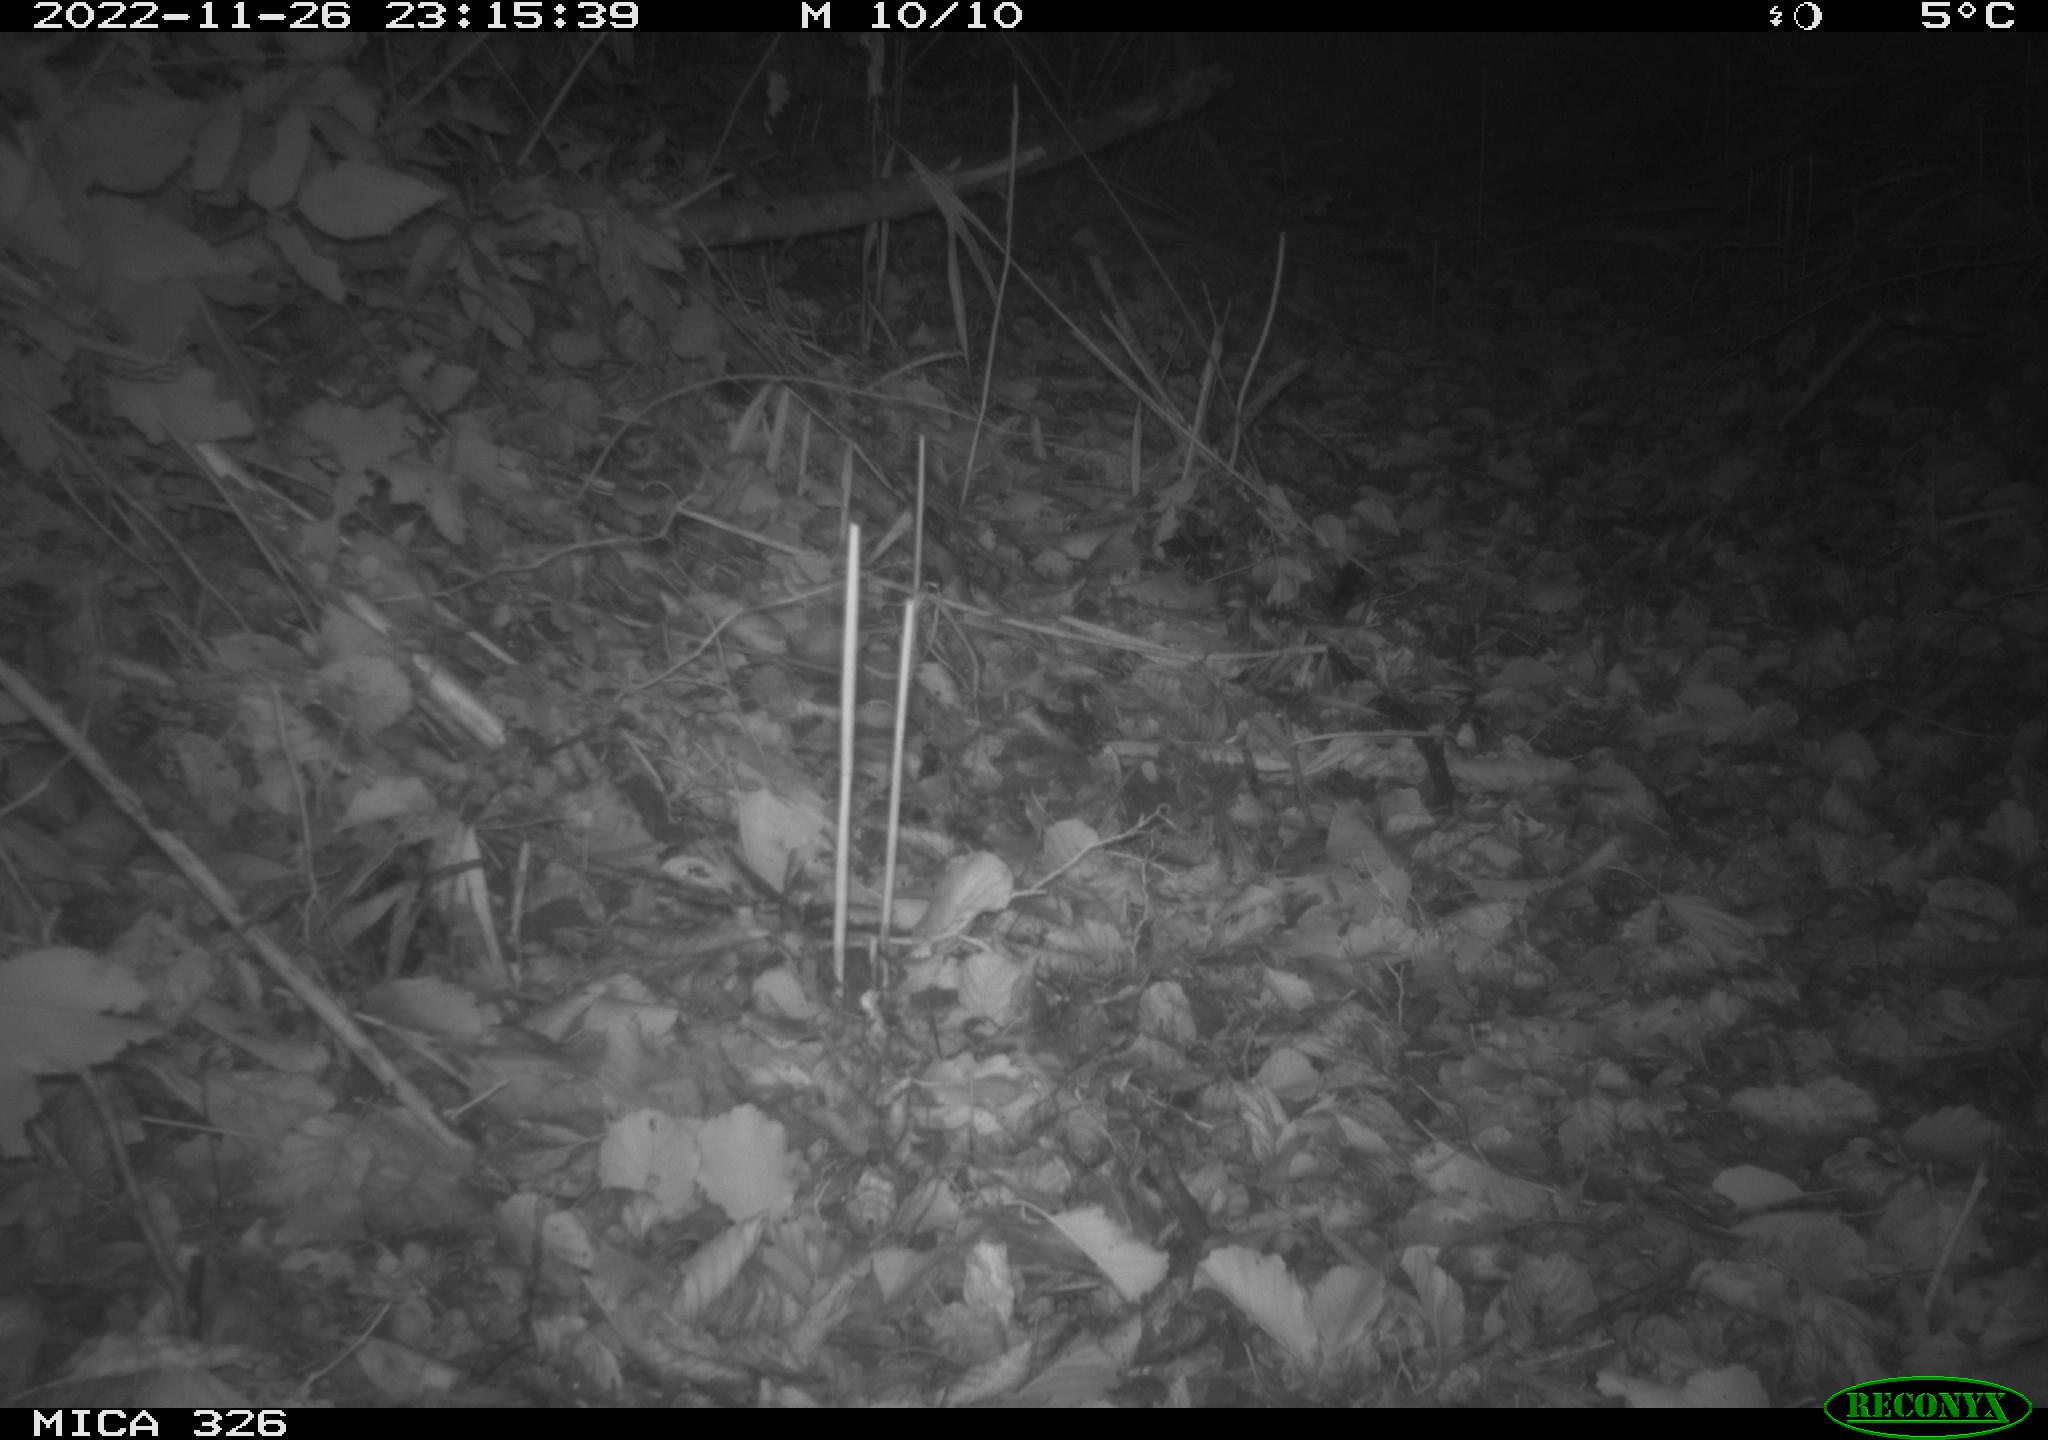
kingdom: Animalia
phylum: Chordata
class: Mammalia
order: Carnivora
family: Felidae
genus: Felis
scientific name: Felis catus
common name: Domestic cat
